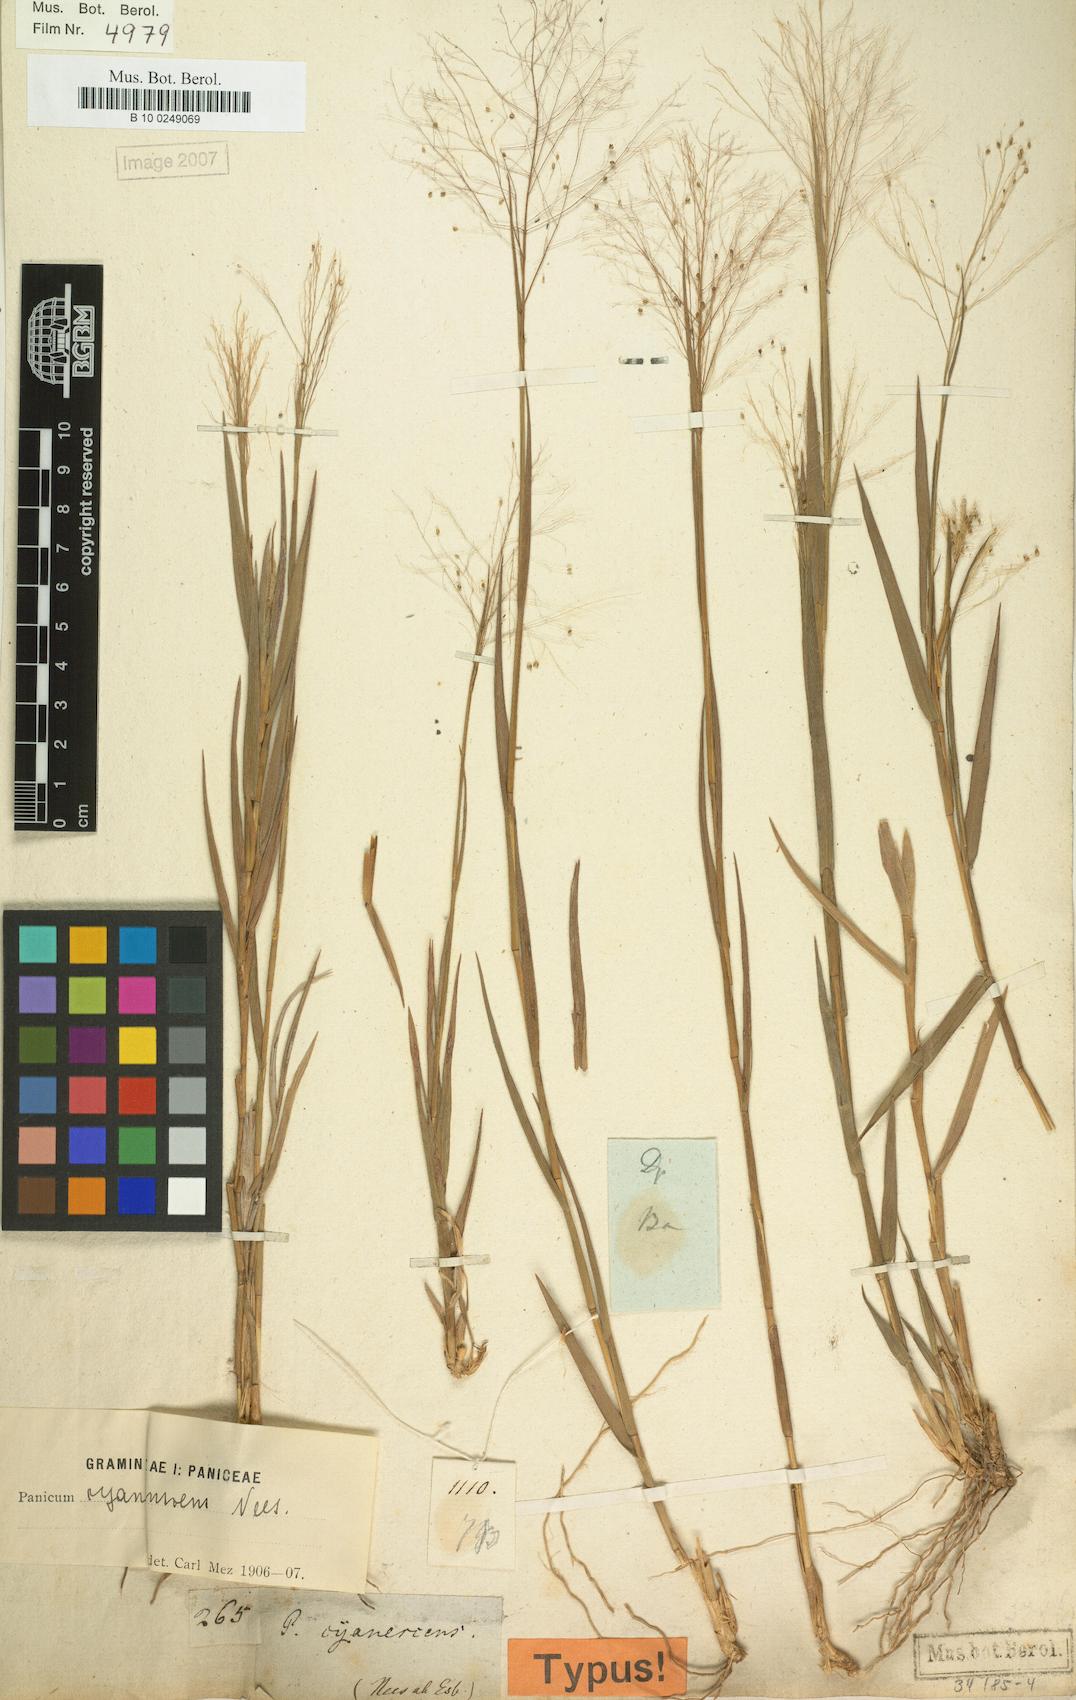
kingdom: Plantae
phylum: Tracheophyta
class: Liliopsida
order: Poales
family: Poaceae
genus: Trichanthecium
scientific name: Trichanthecium cyanescens
